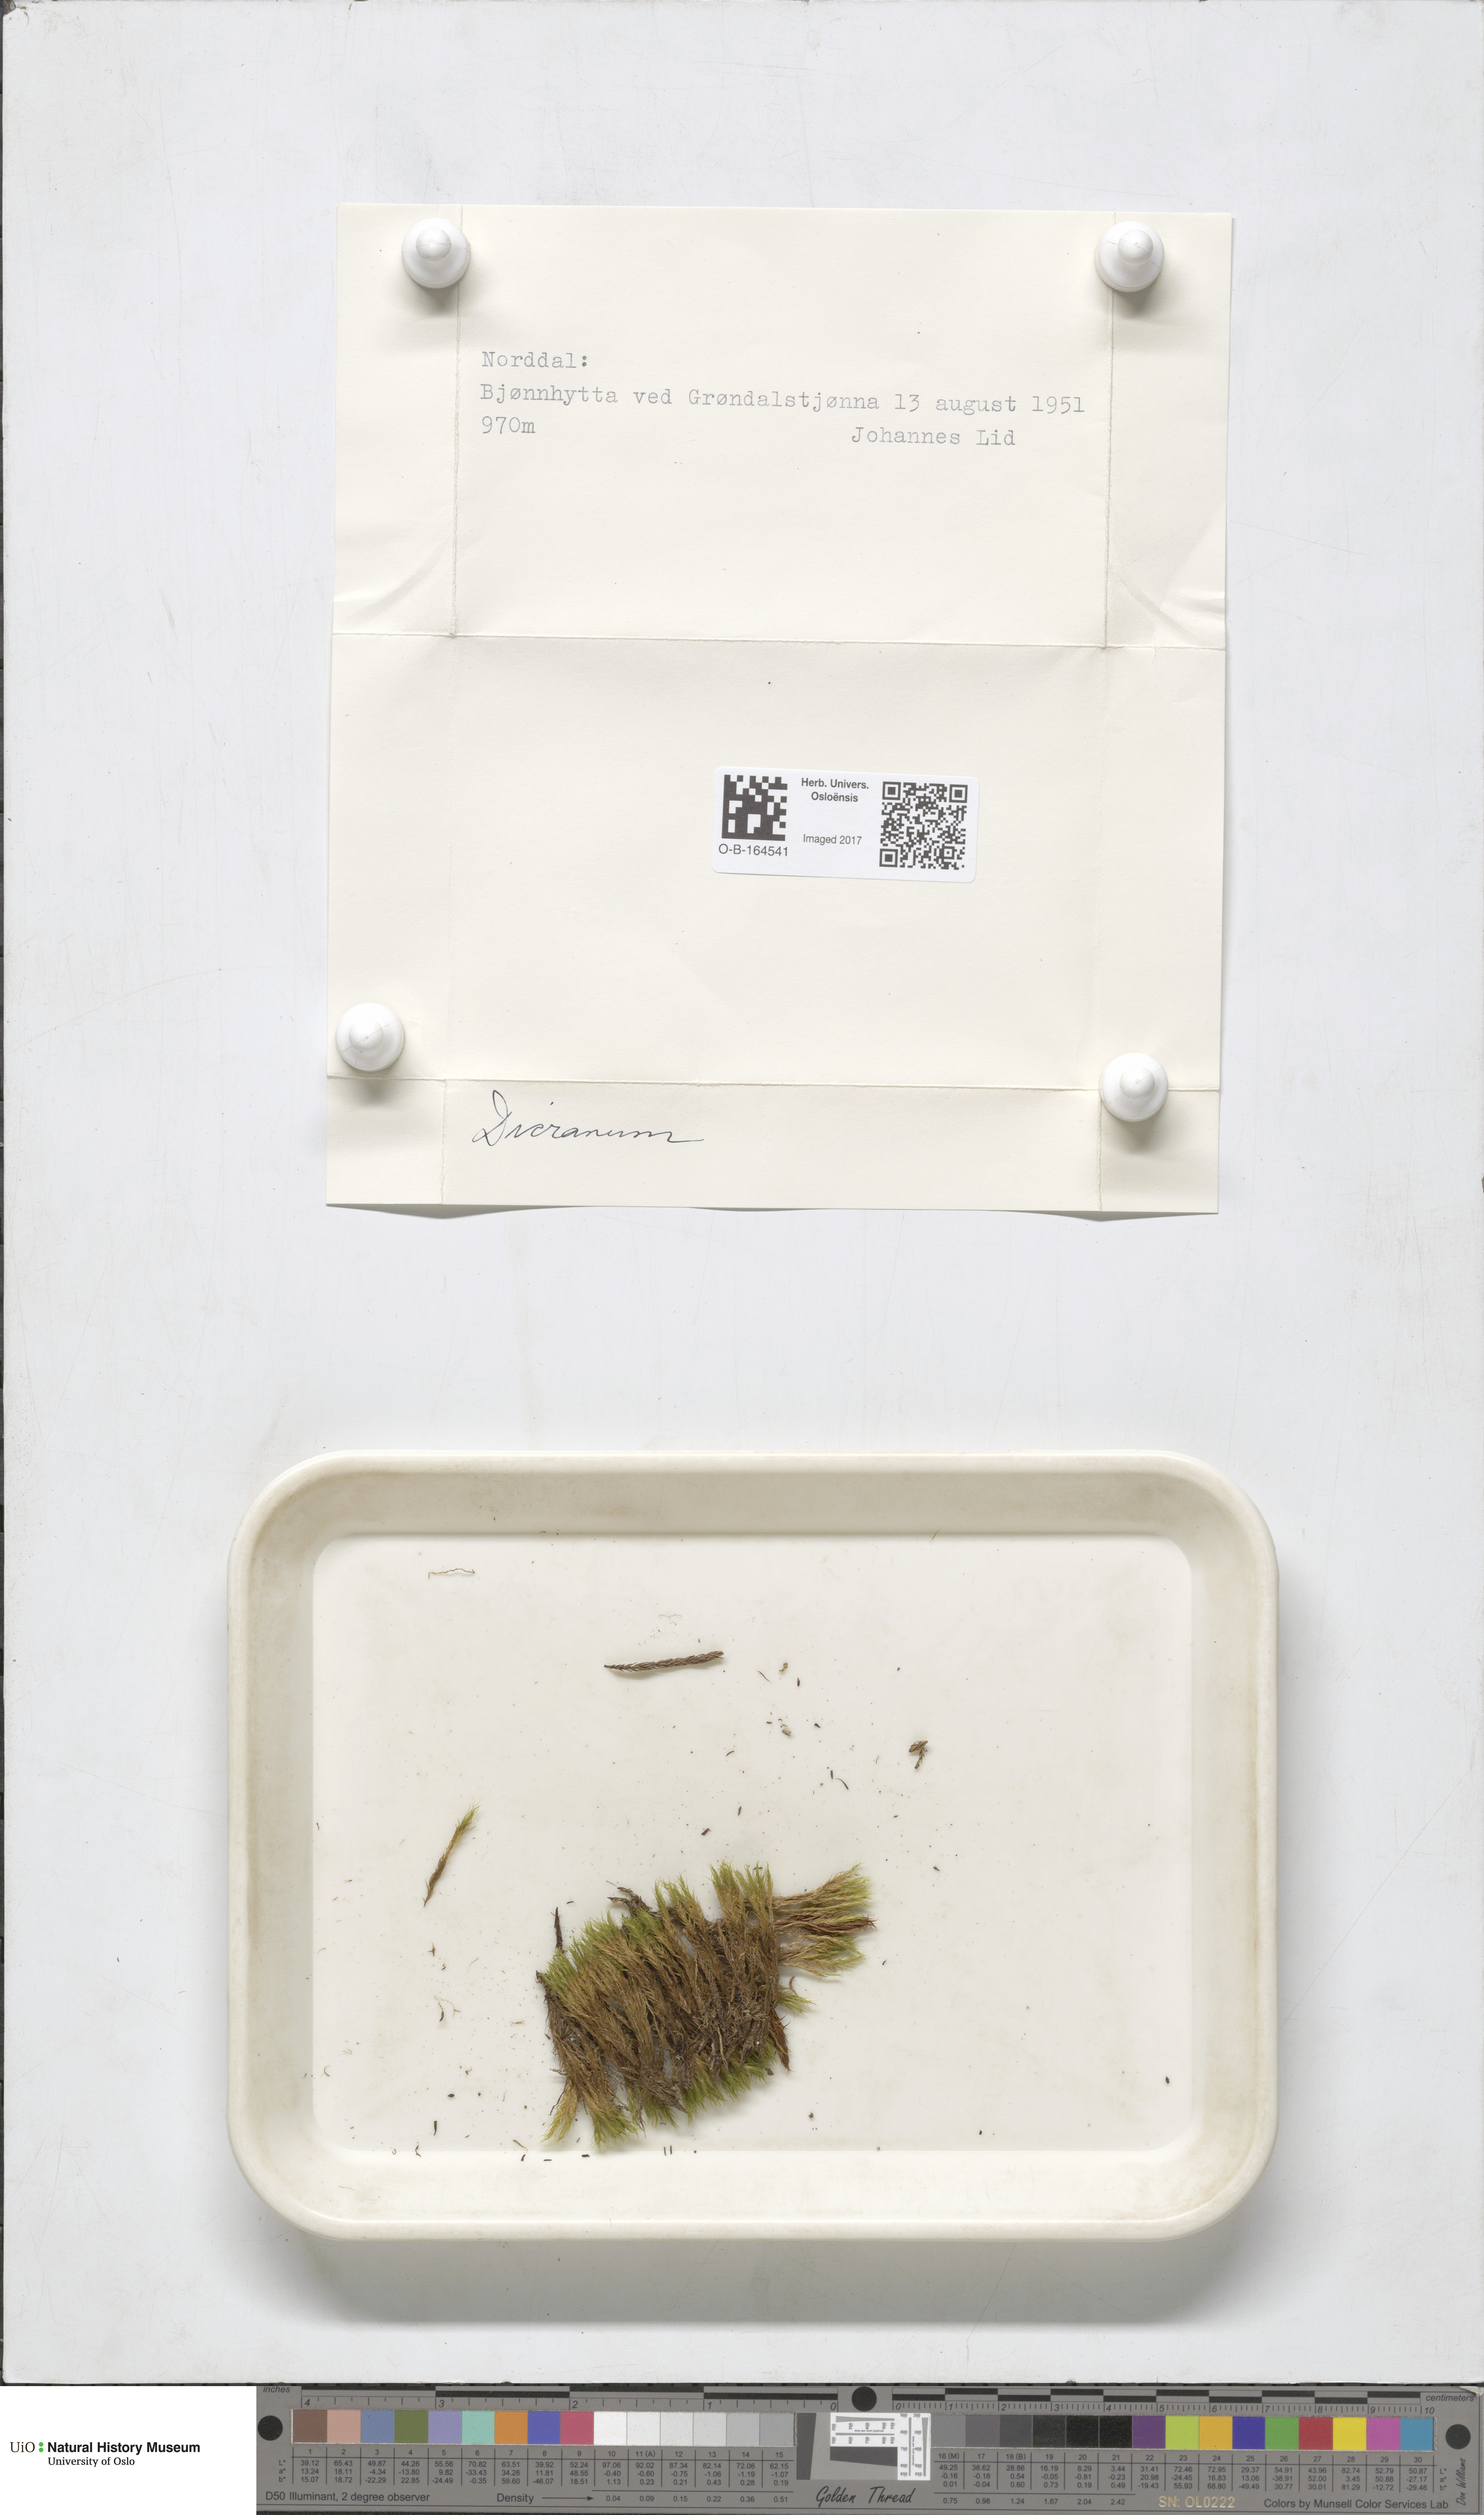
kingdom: Plantae
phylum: Bryophyta
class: Bryopsida
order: Dicranales
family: Dicranaceae
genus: Dicranum
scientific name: Dicranum
